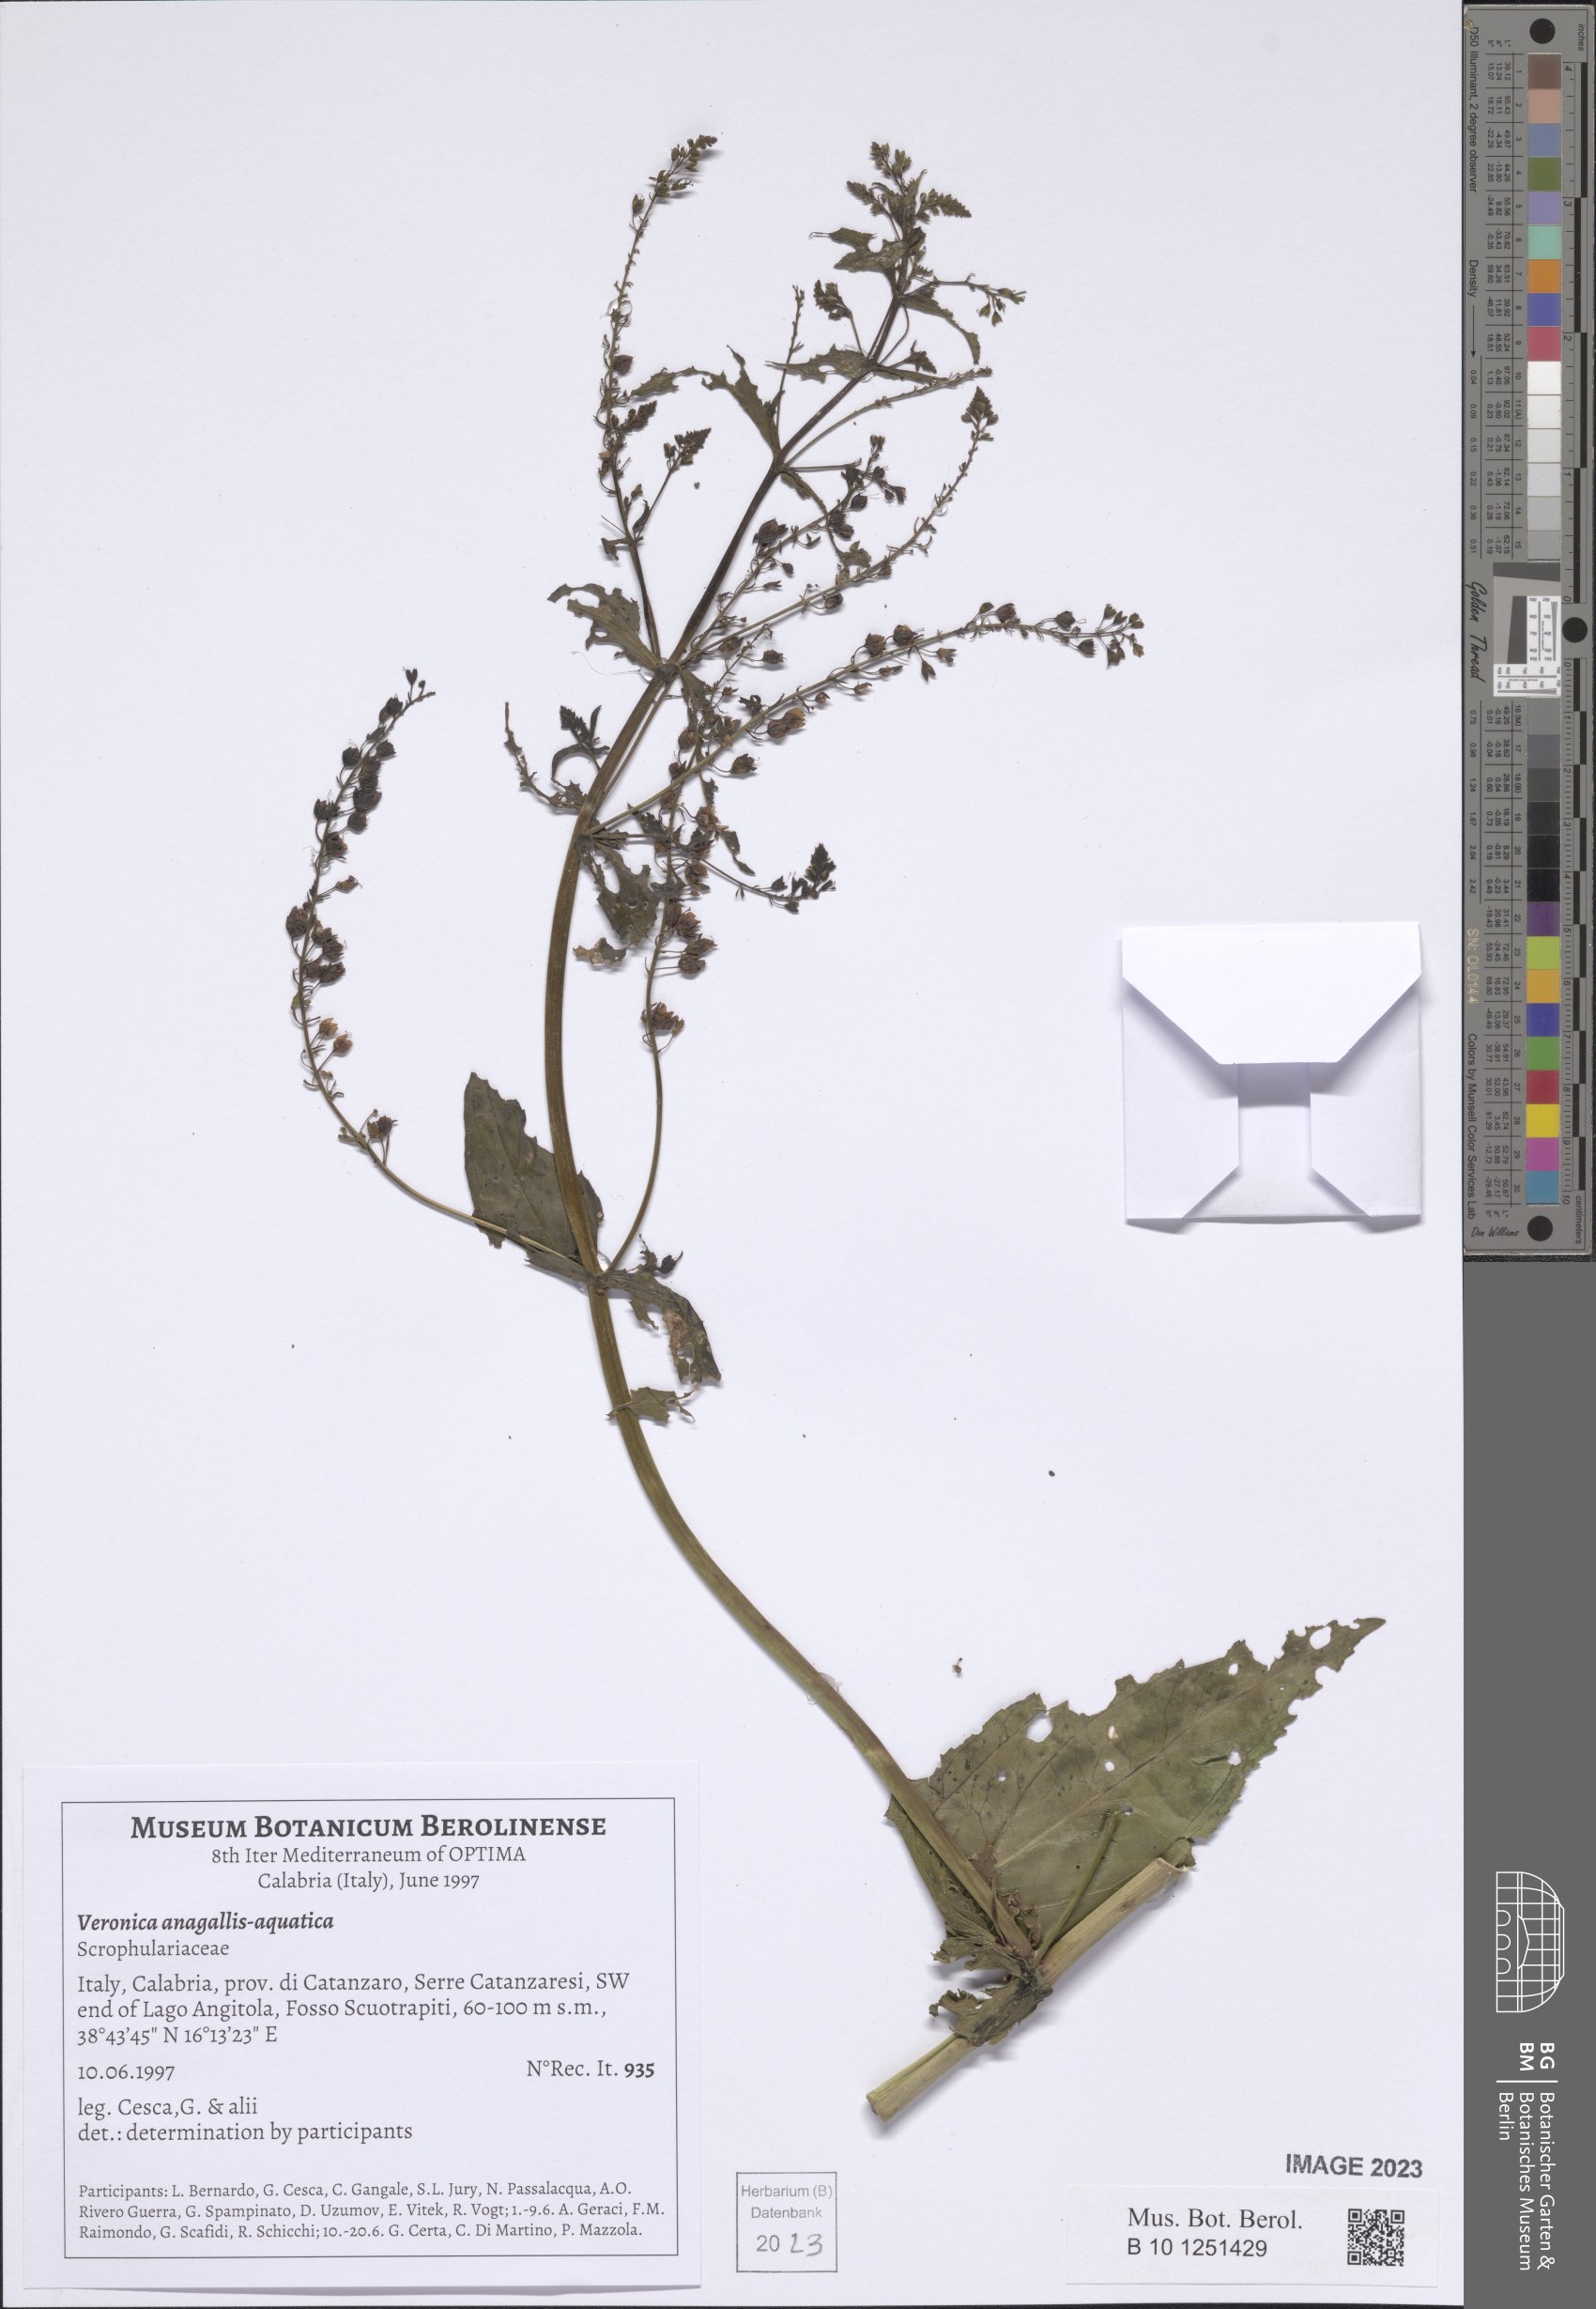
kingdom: Plantae
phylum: Tracheophyta
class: Magnoliopsida
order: Lamiales
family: Plantaginaceae
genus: Veronica
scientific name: Veronica anagallis-aquatica
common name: Water speedwell
